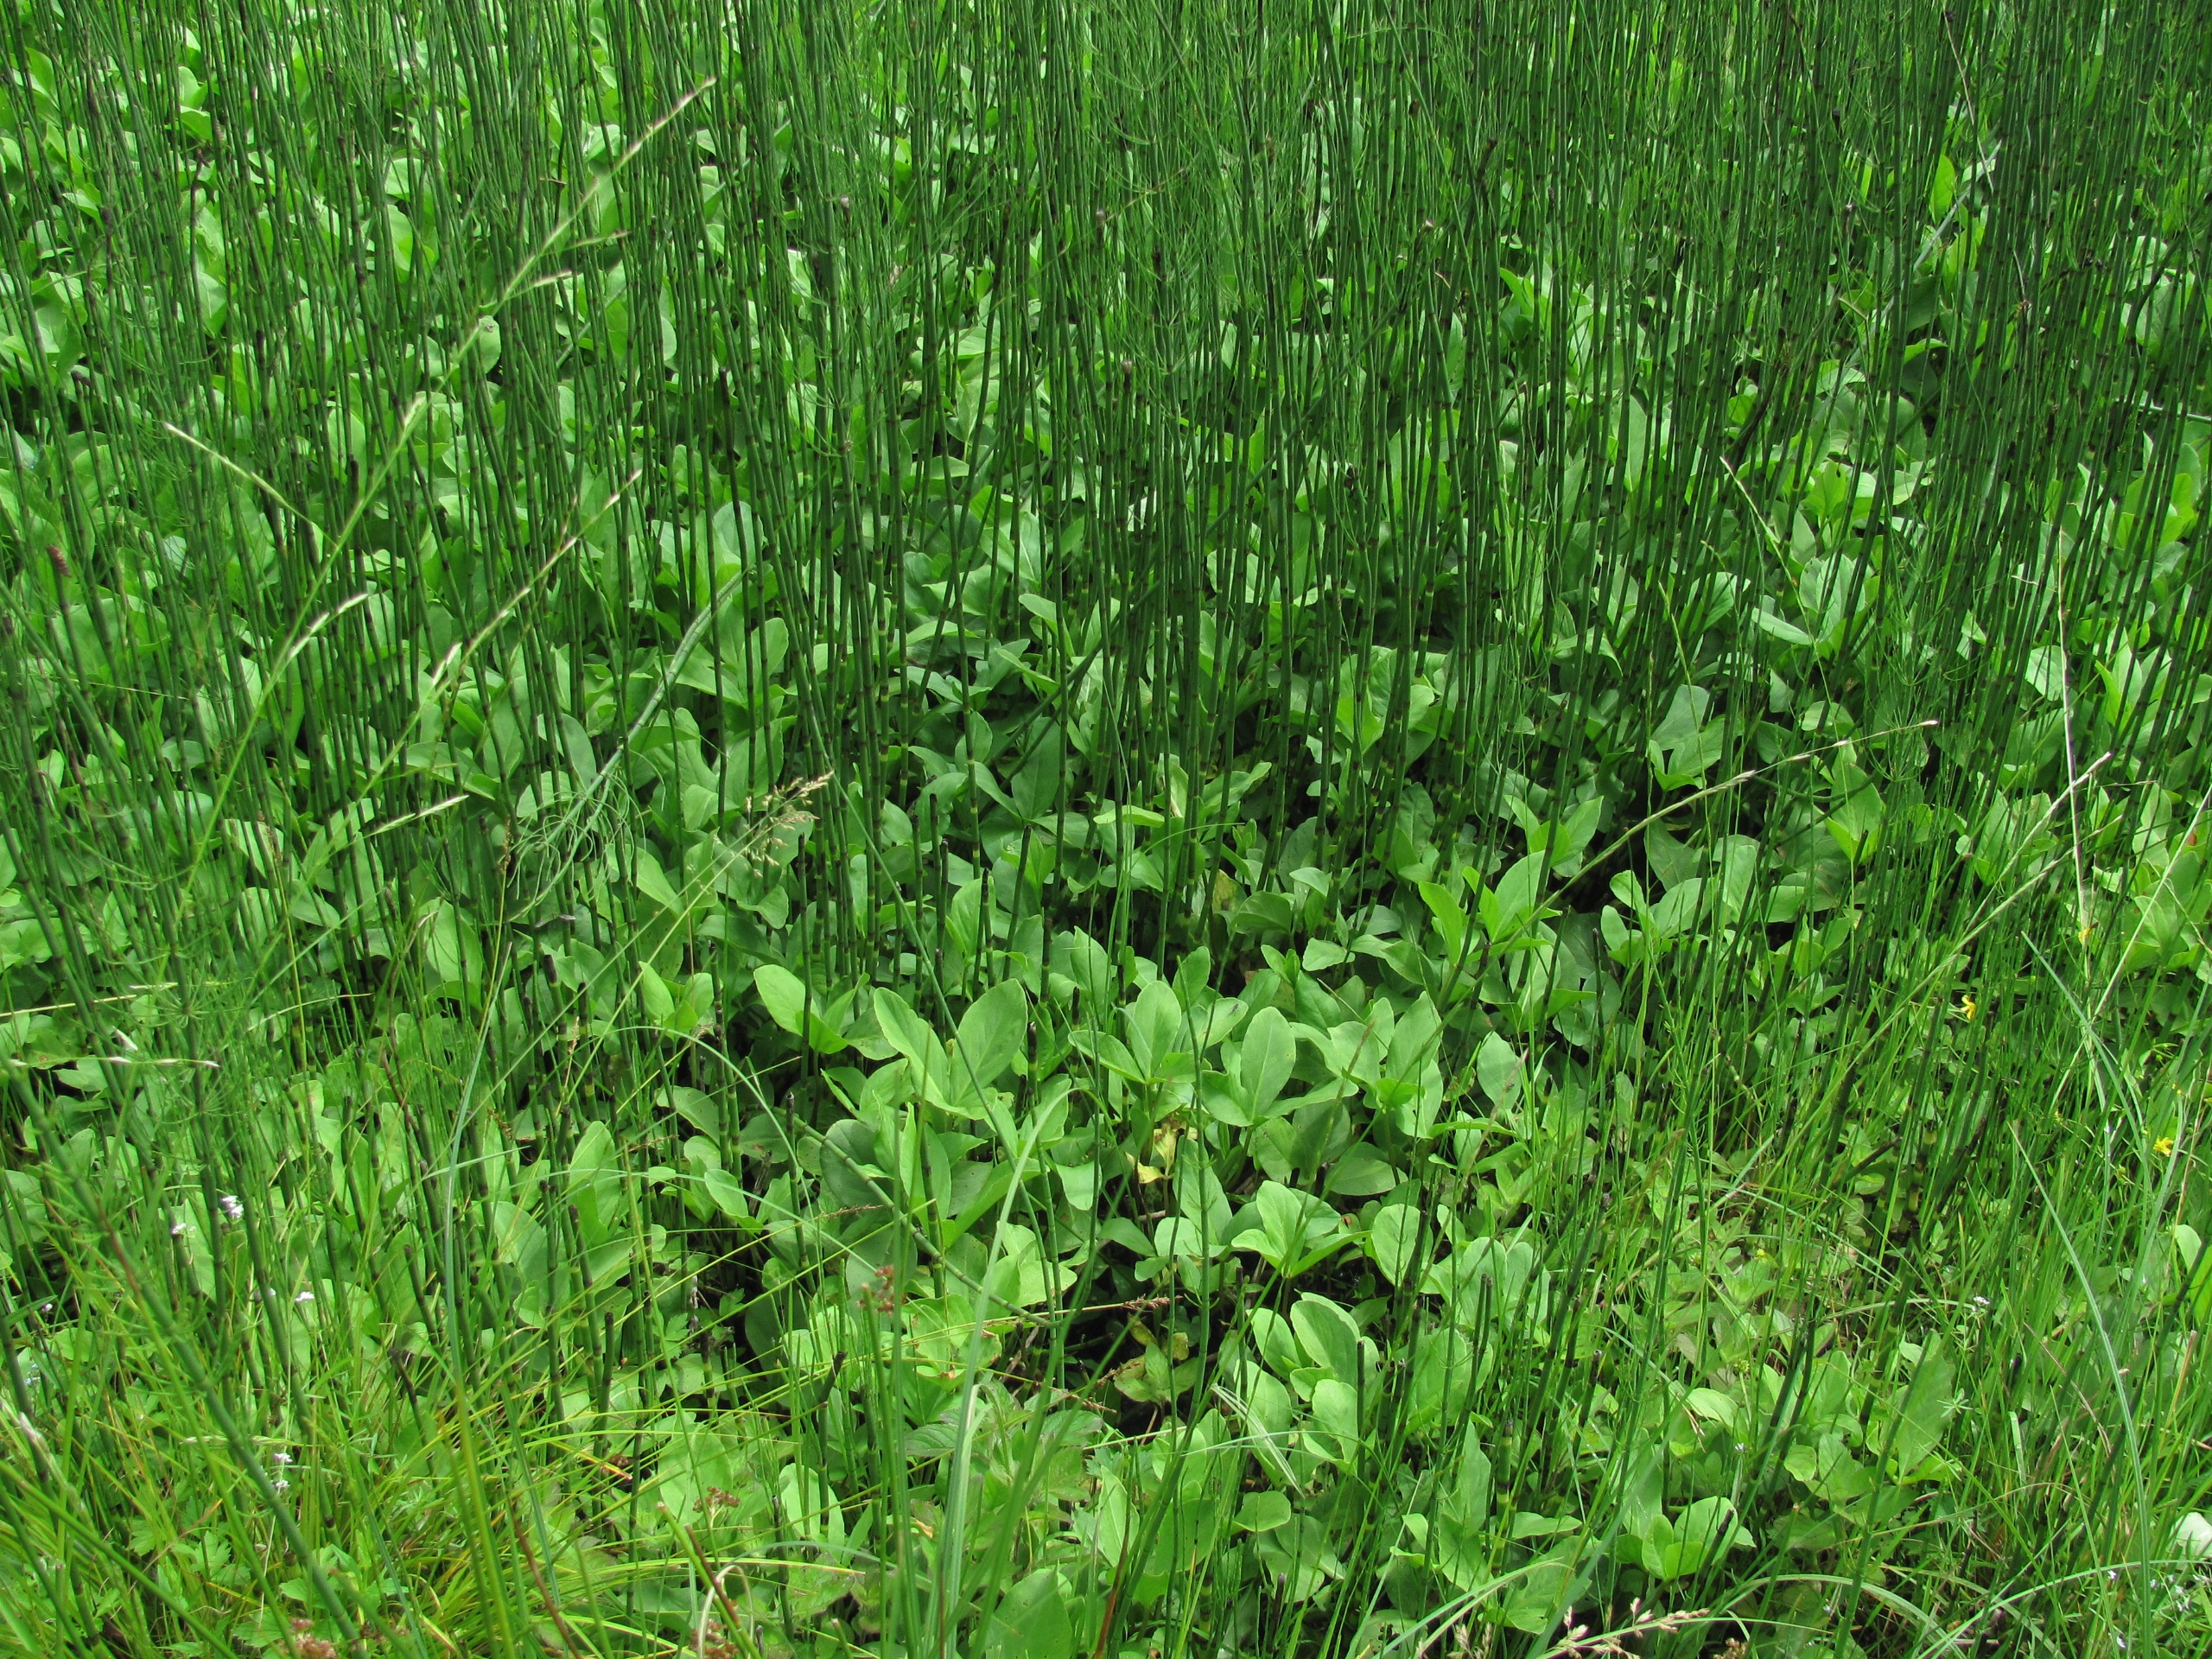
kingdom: Plantae
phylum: Tracheophyta
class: Magnoliopsida
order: Asterales
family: Menyanthaceae
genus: Menyanthes
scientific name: Menyanthes trifoliata
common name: Bukkeblad
